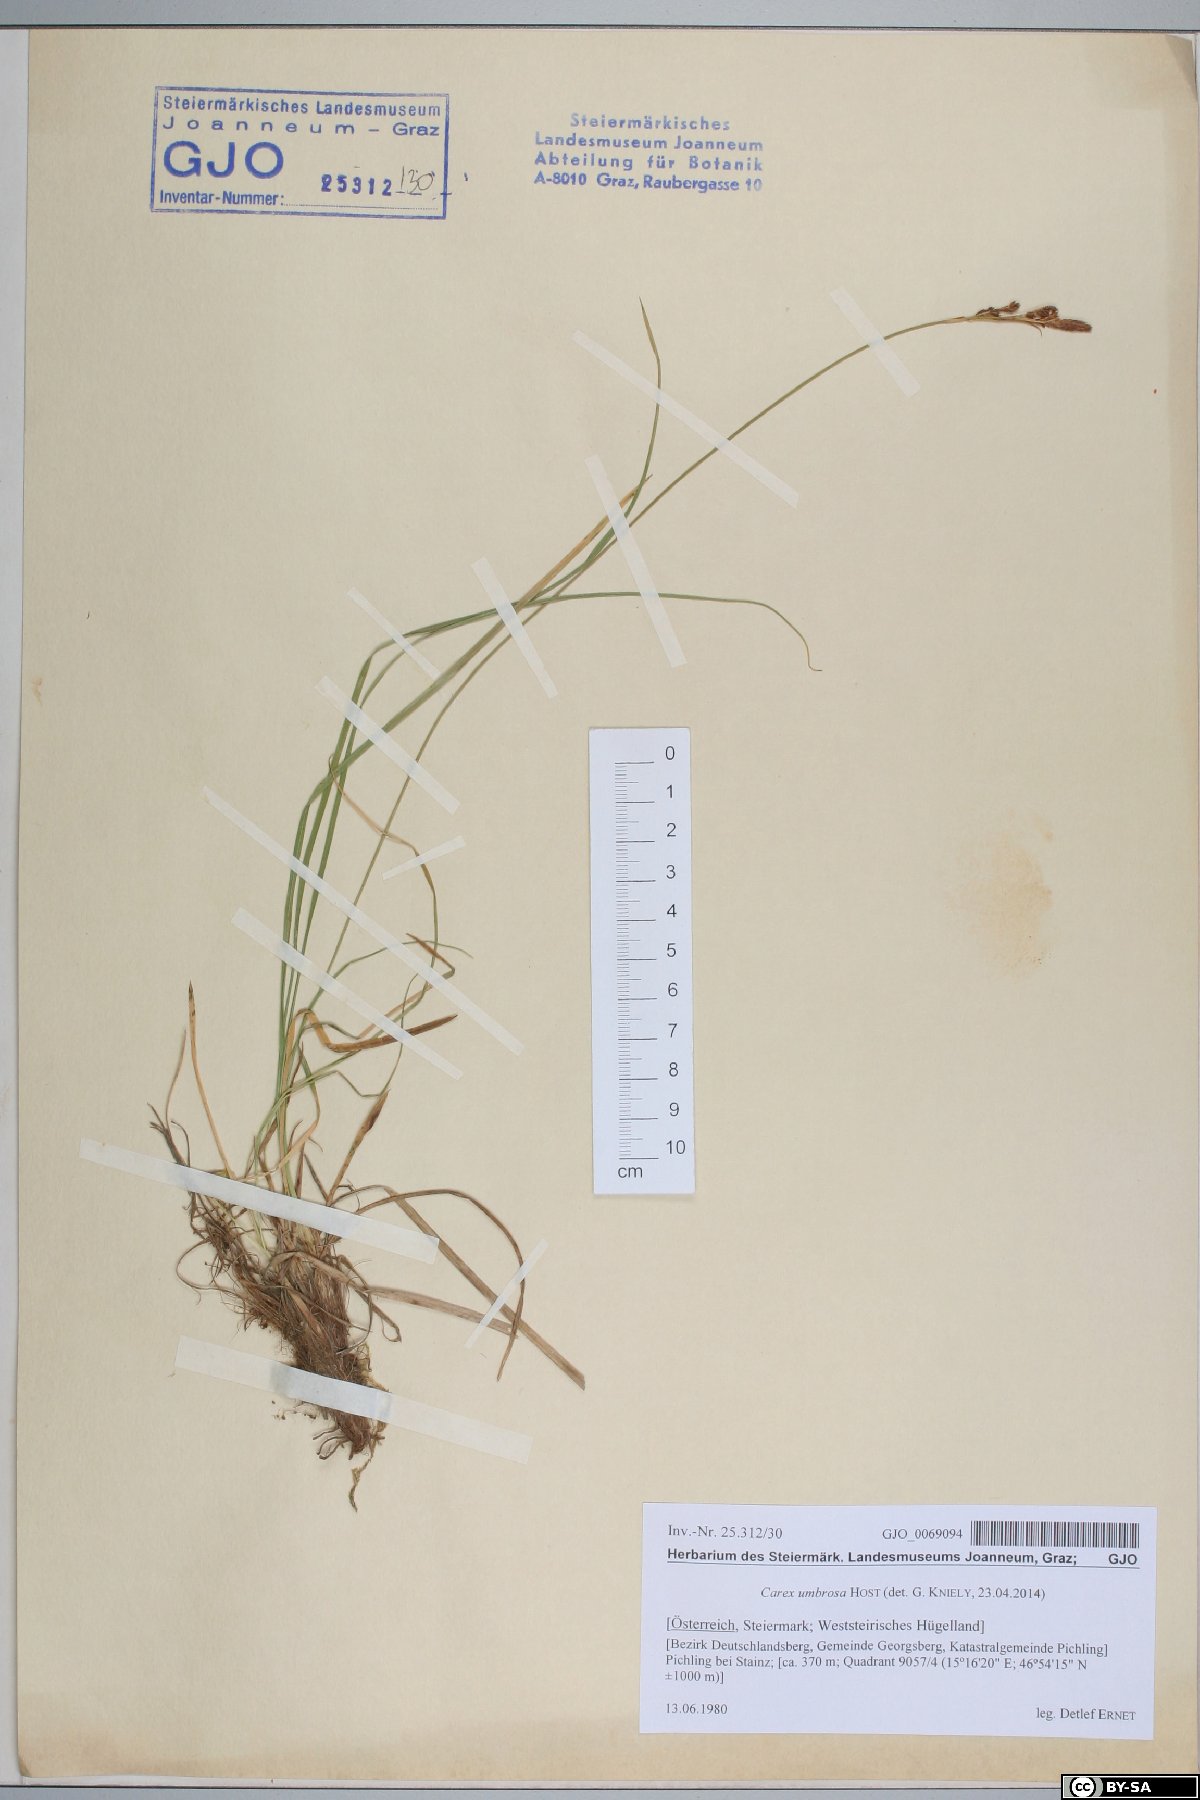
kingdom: Plantae
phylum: Tracheophyta
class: Liliopsida
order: Poales
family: Cyperaceae
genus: Carex
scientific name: Carex umbrosa
